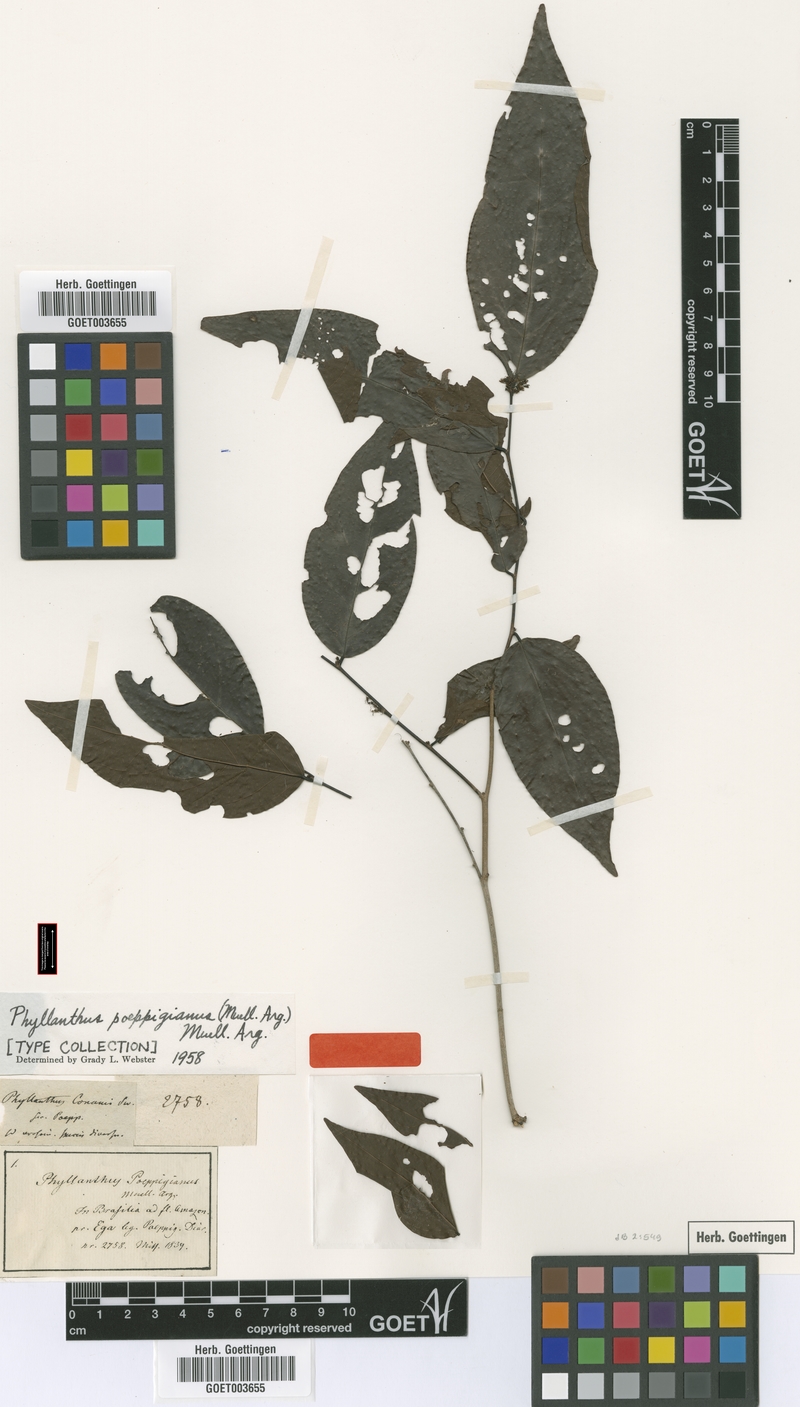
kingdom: Plantae
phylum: Tracheophyta
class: Magnoliopsida
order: Malpighiales
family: Phyllanthaceae
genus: Phyllanthus
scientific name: Phyllanthus poeppigianus
